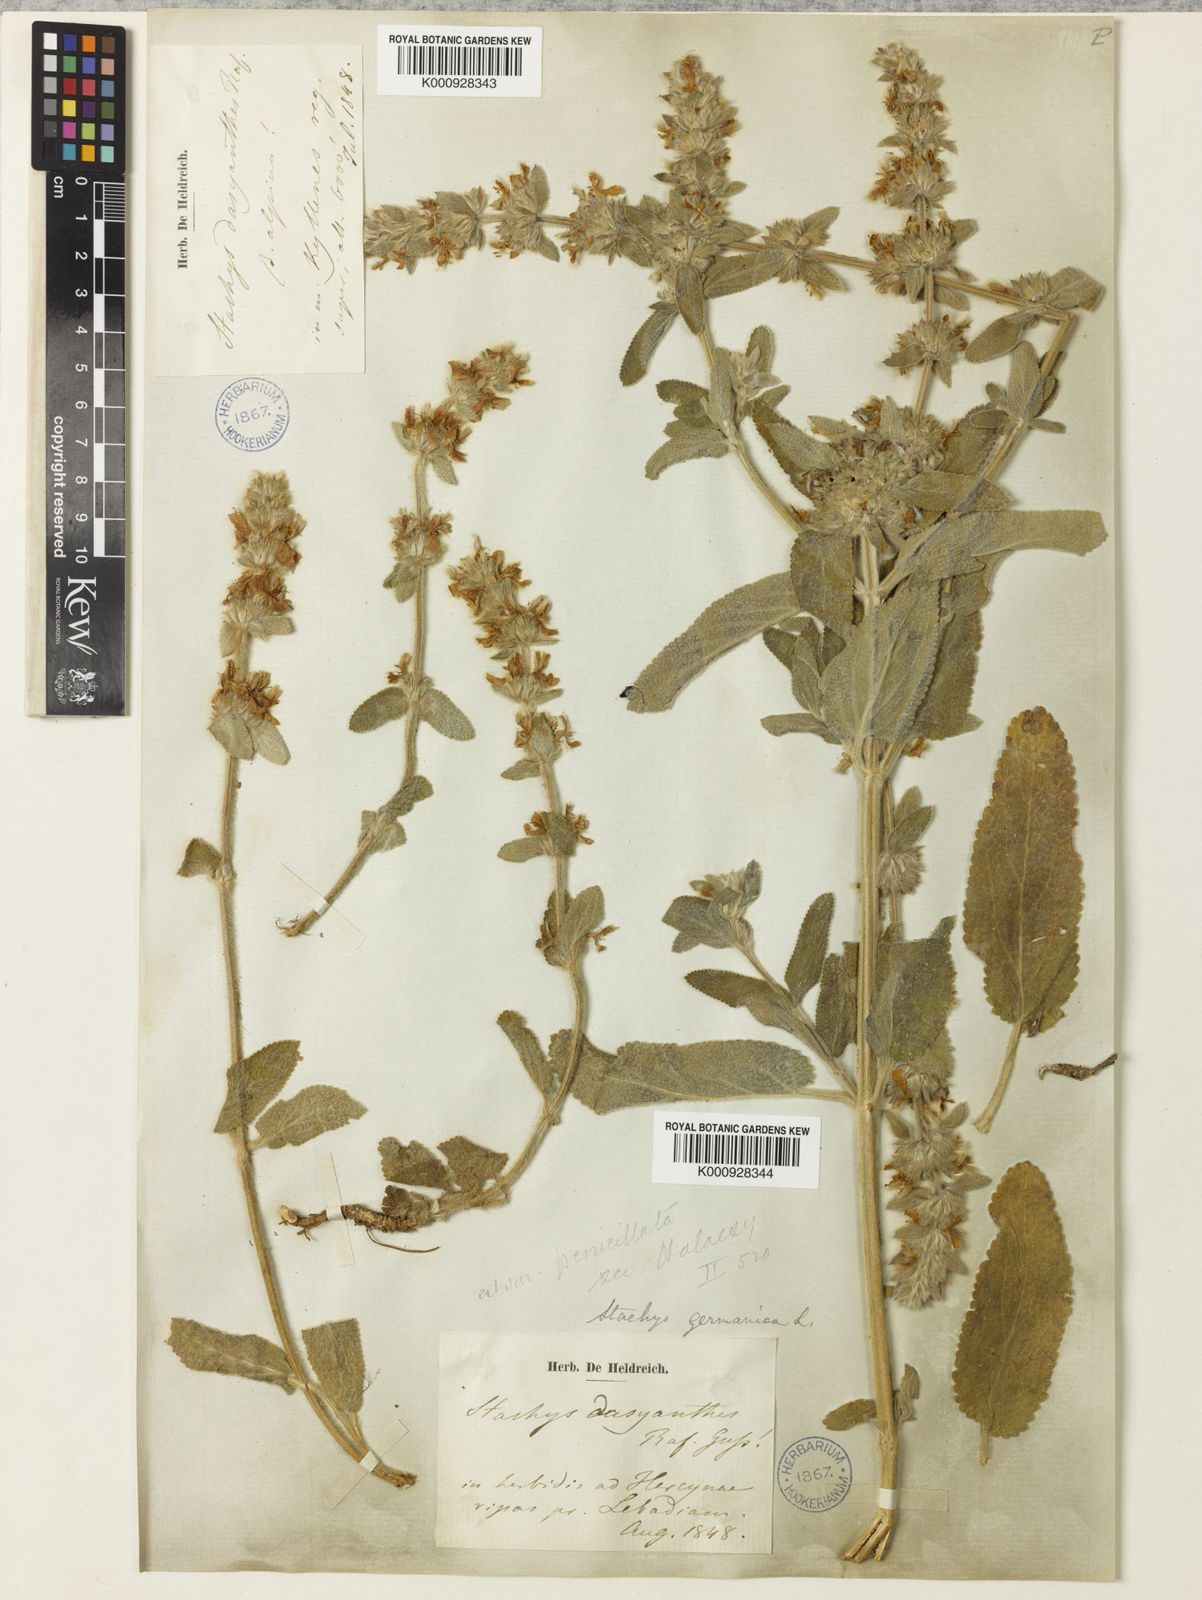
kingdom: Plantae
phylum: Tracheophyta
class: Magnoliopsida
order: Lamiales
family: Lamiaceae
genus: Stachys
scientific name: Stachys cretica
